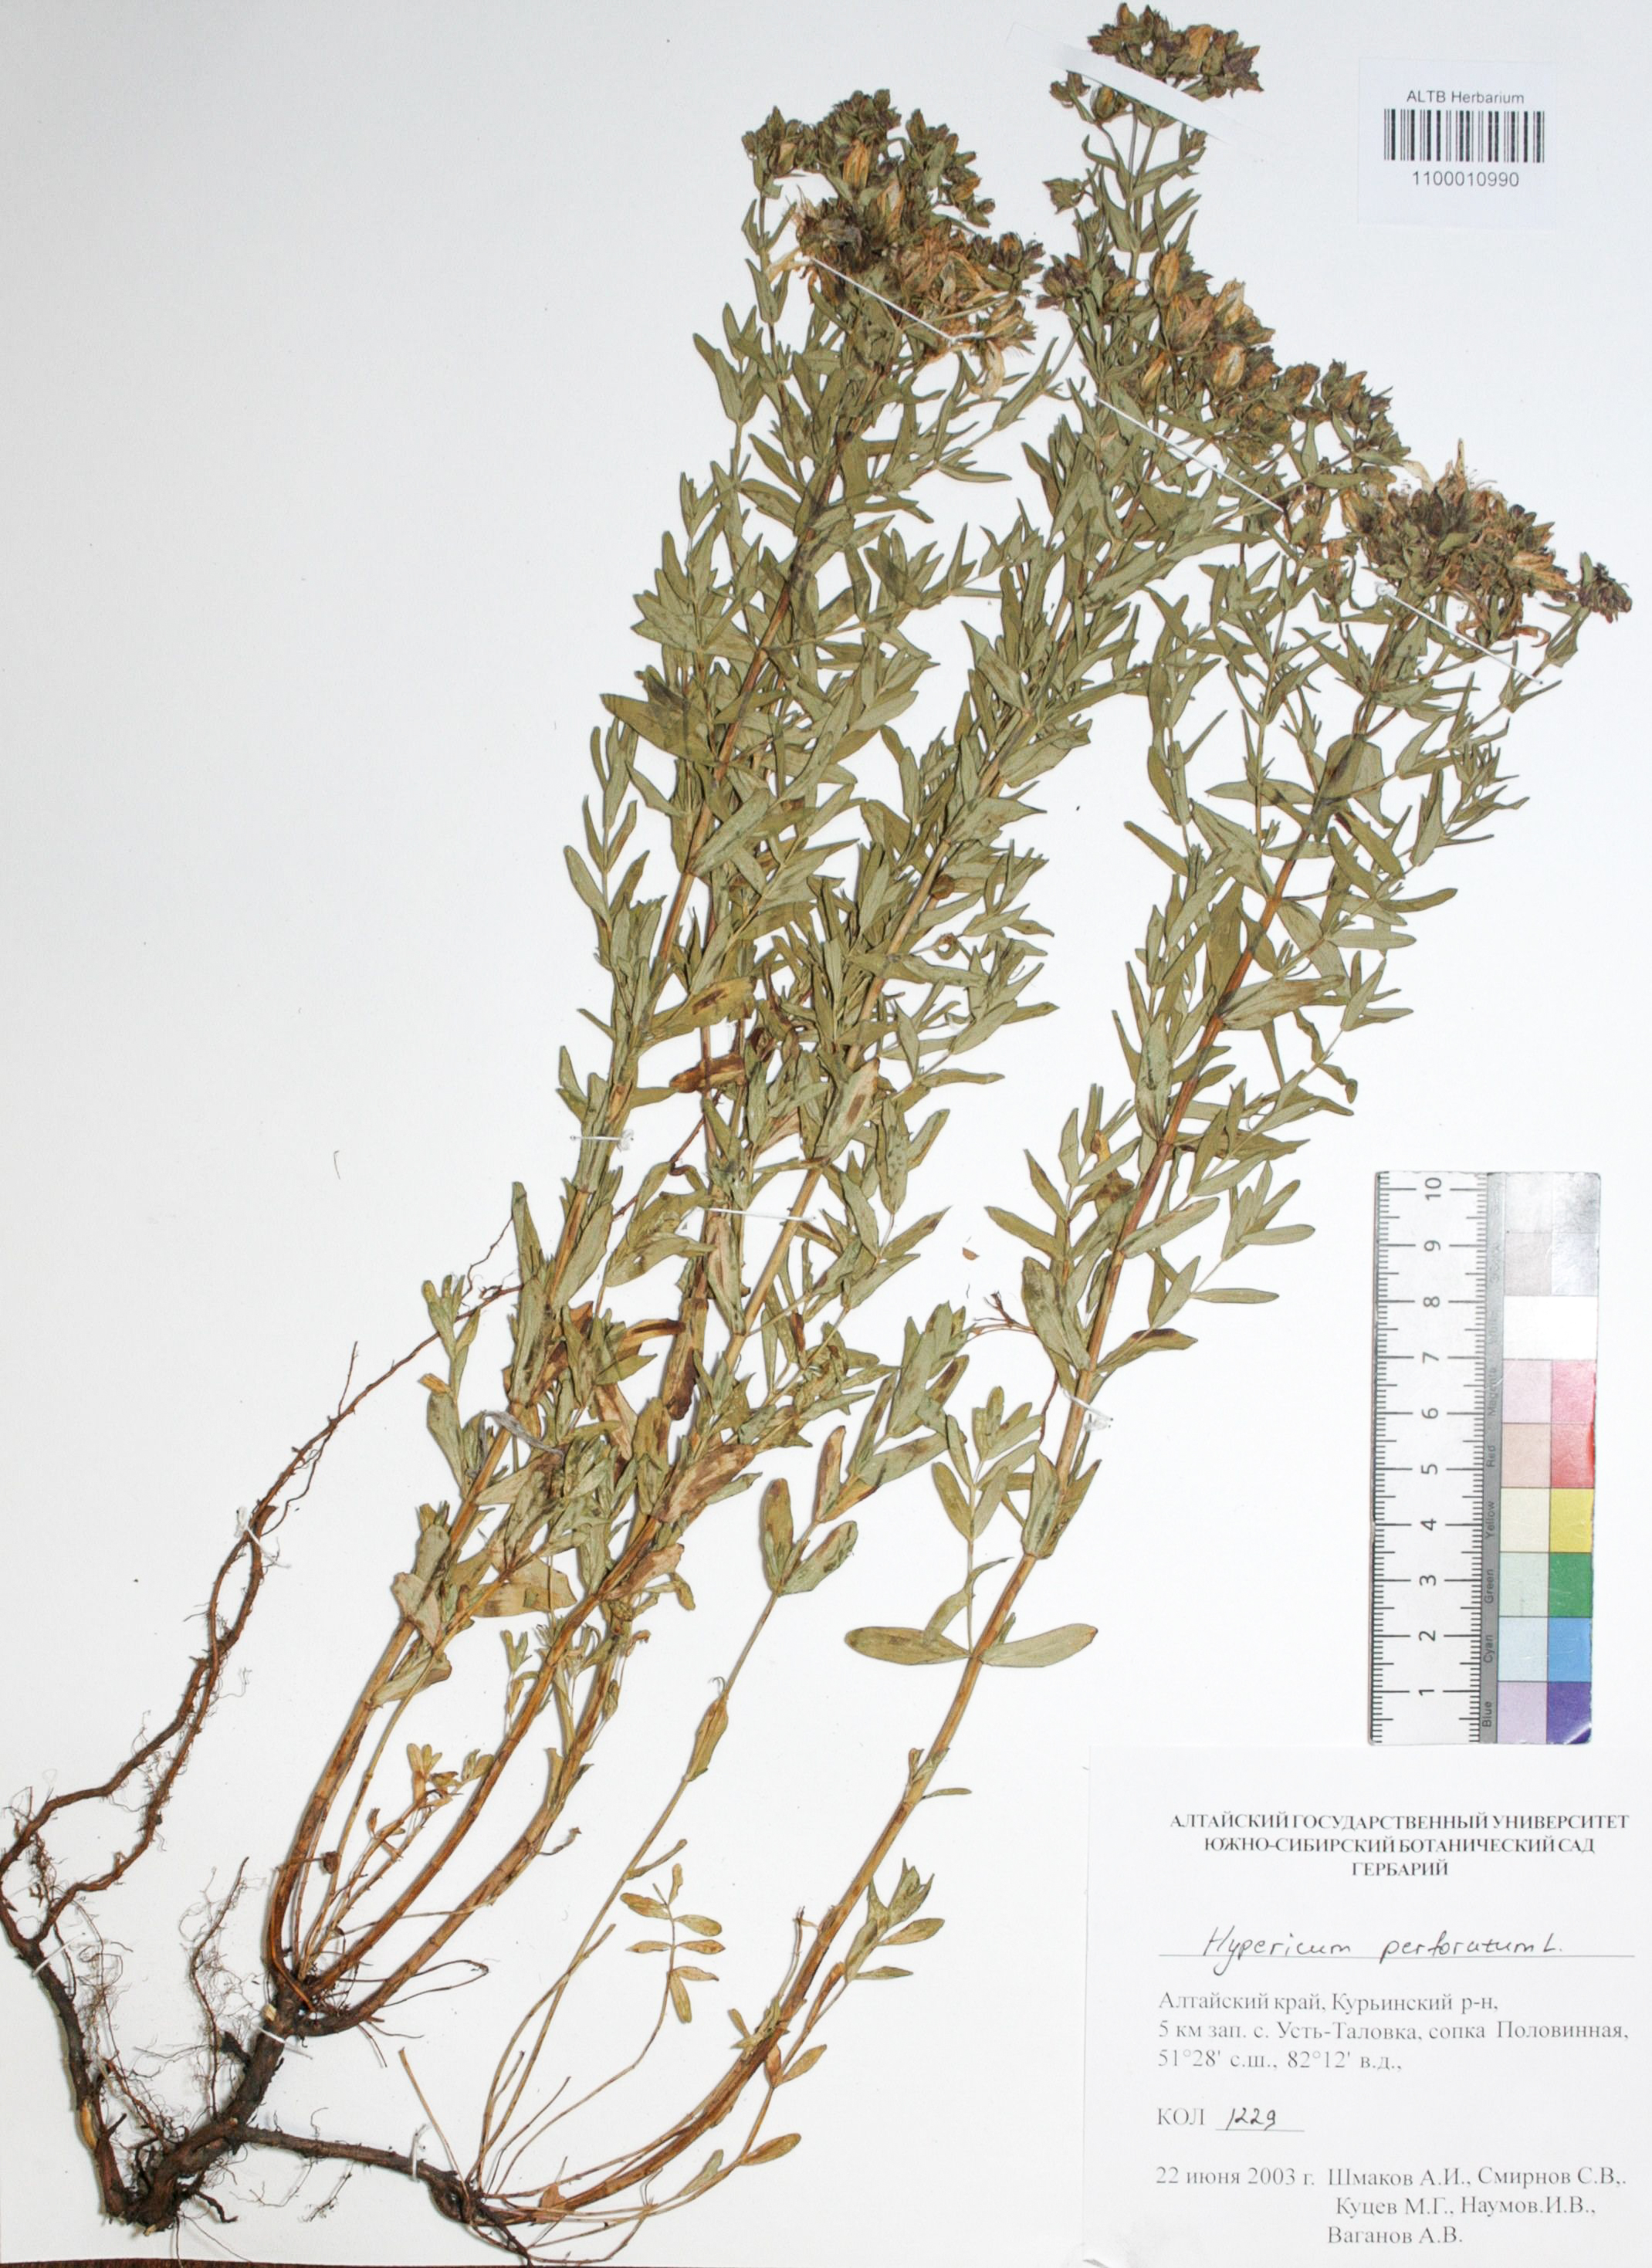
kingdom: Plantae
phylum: Tracheophyta
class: Magnoliopsida
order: Malpighiales
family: Hypericaceae
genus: Hypericum
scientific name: Hypericum perforatum
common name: Common st. johnswort
